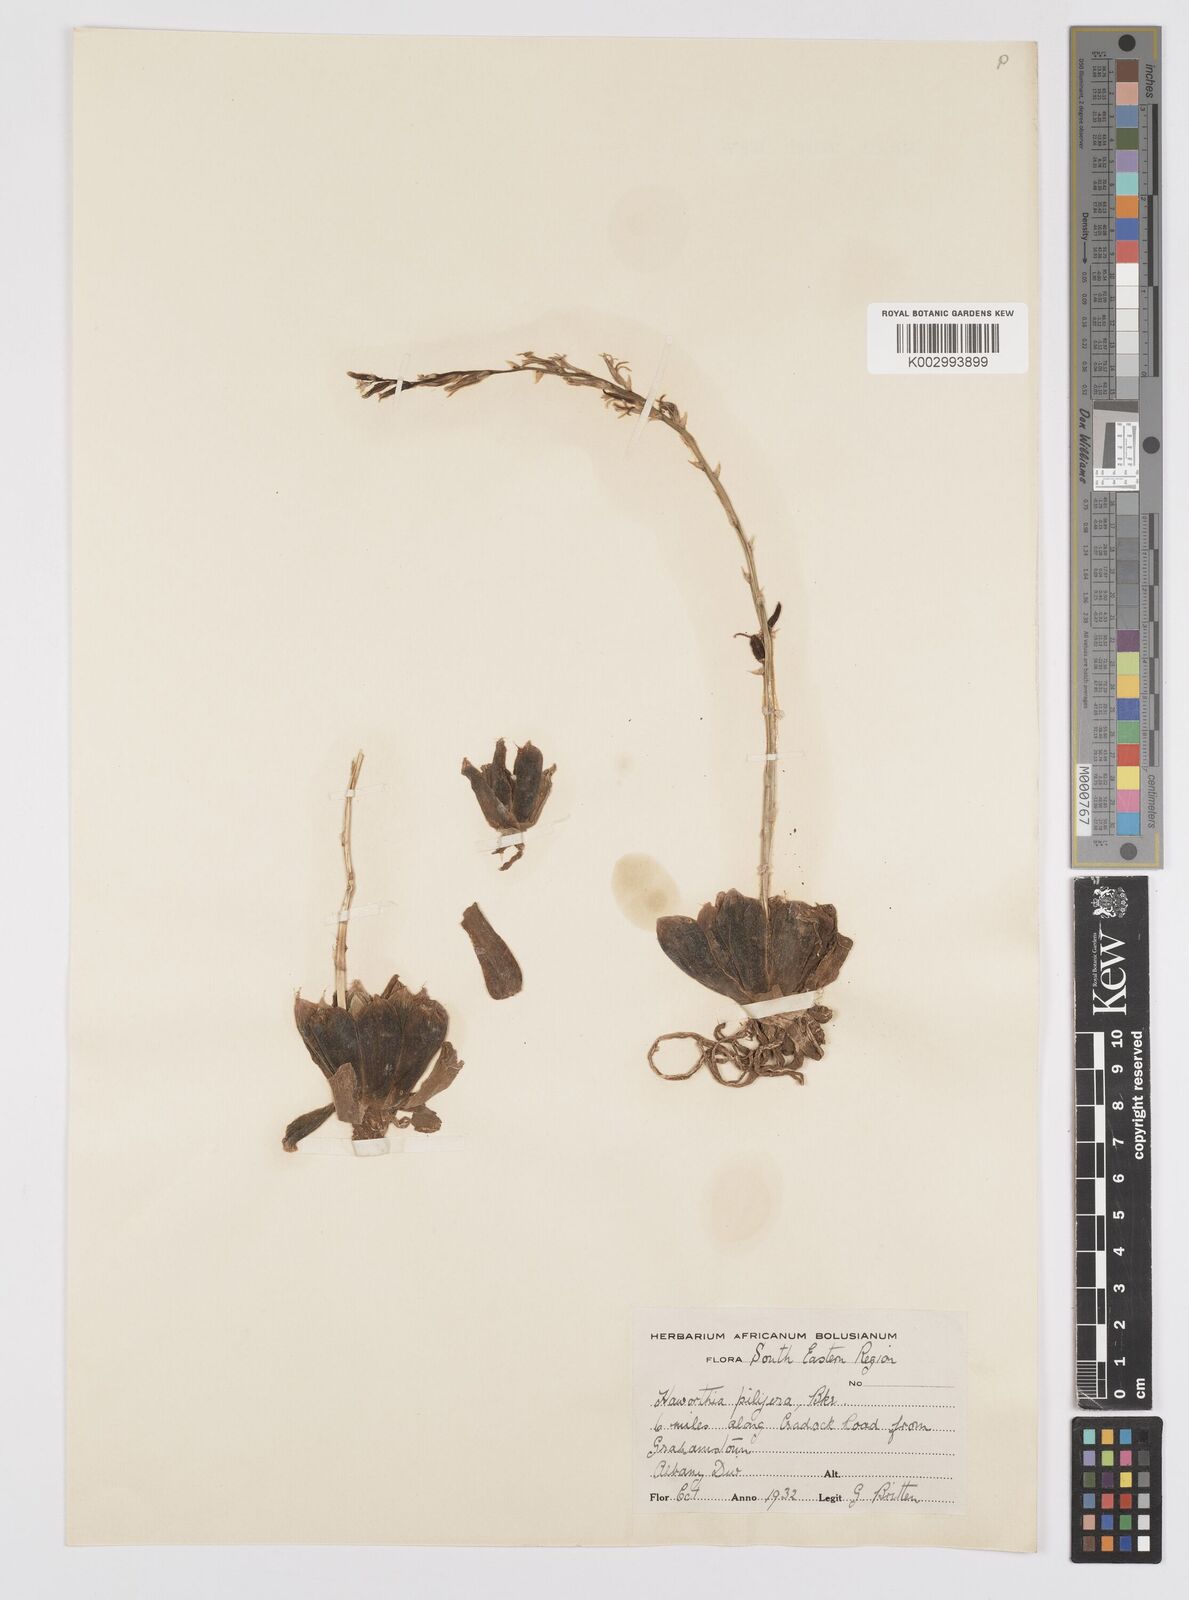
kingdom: Plantae
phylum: Tracheophyta
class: Liliopsida
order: Asparagales
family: Asphodelaceae
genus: Haworthia
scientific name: Haworthia cymbiformis
